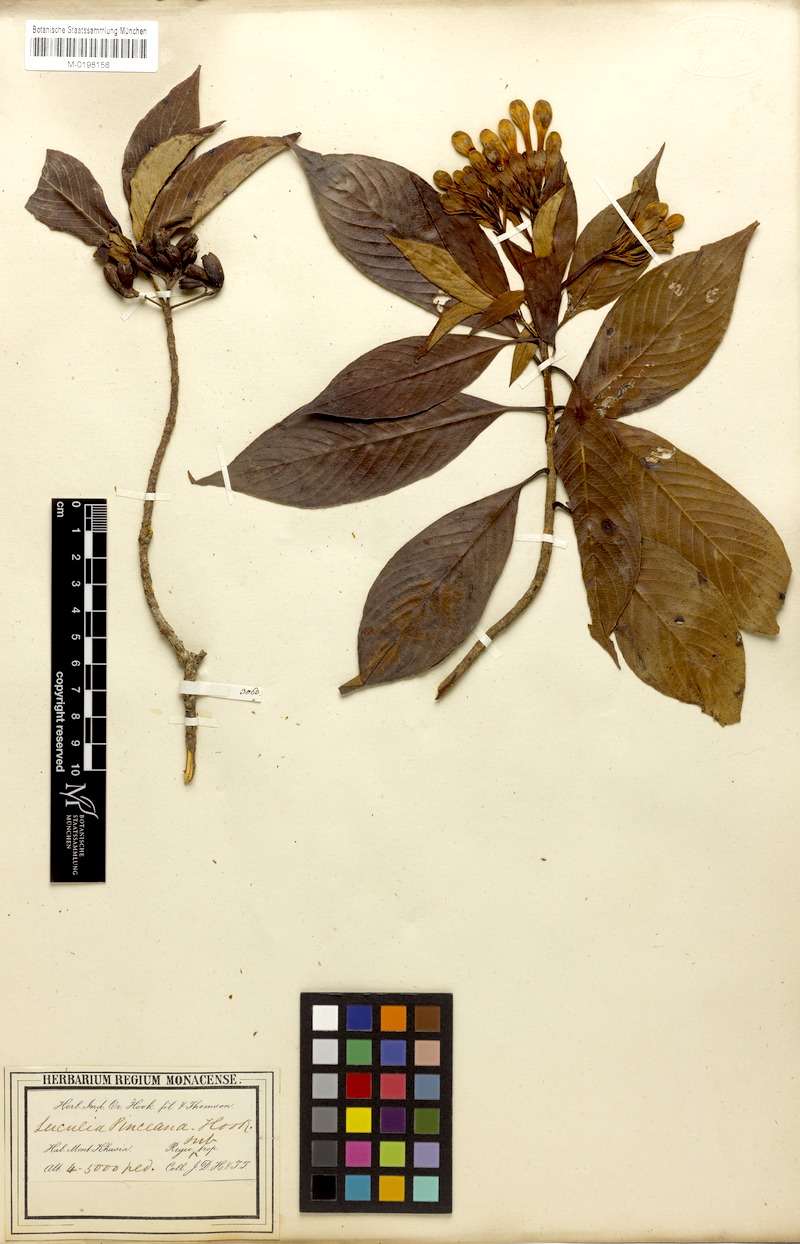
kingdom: Plantae
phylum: Tracheophyta
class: Magnoliopsida
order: Gentianales
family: Rubiaceae
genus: Luculia
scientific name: Luculia pinceana
